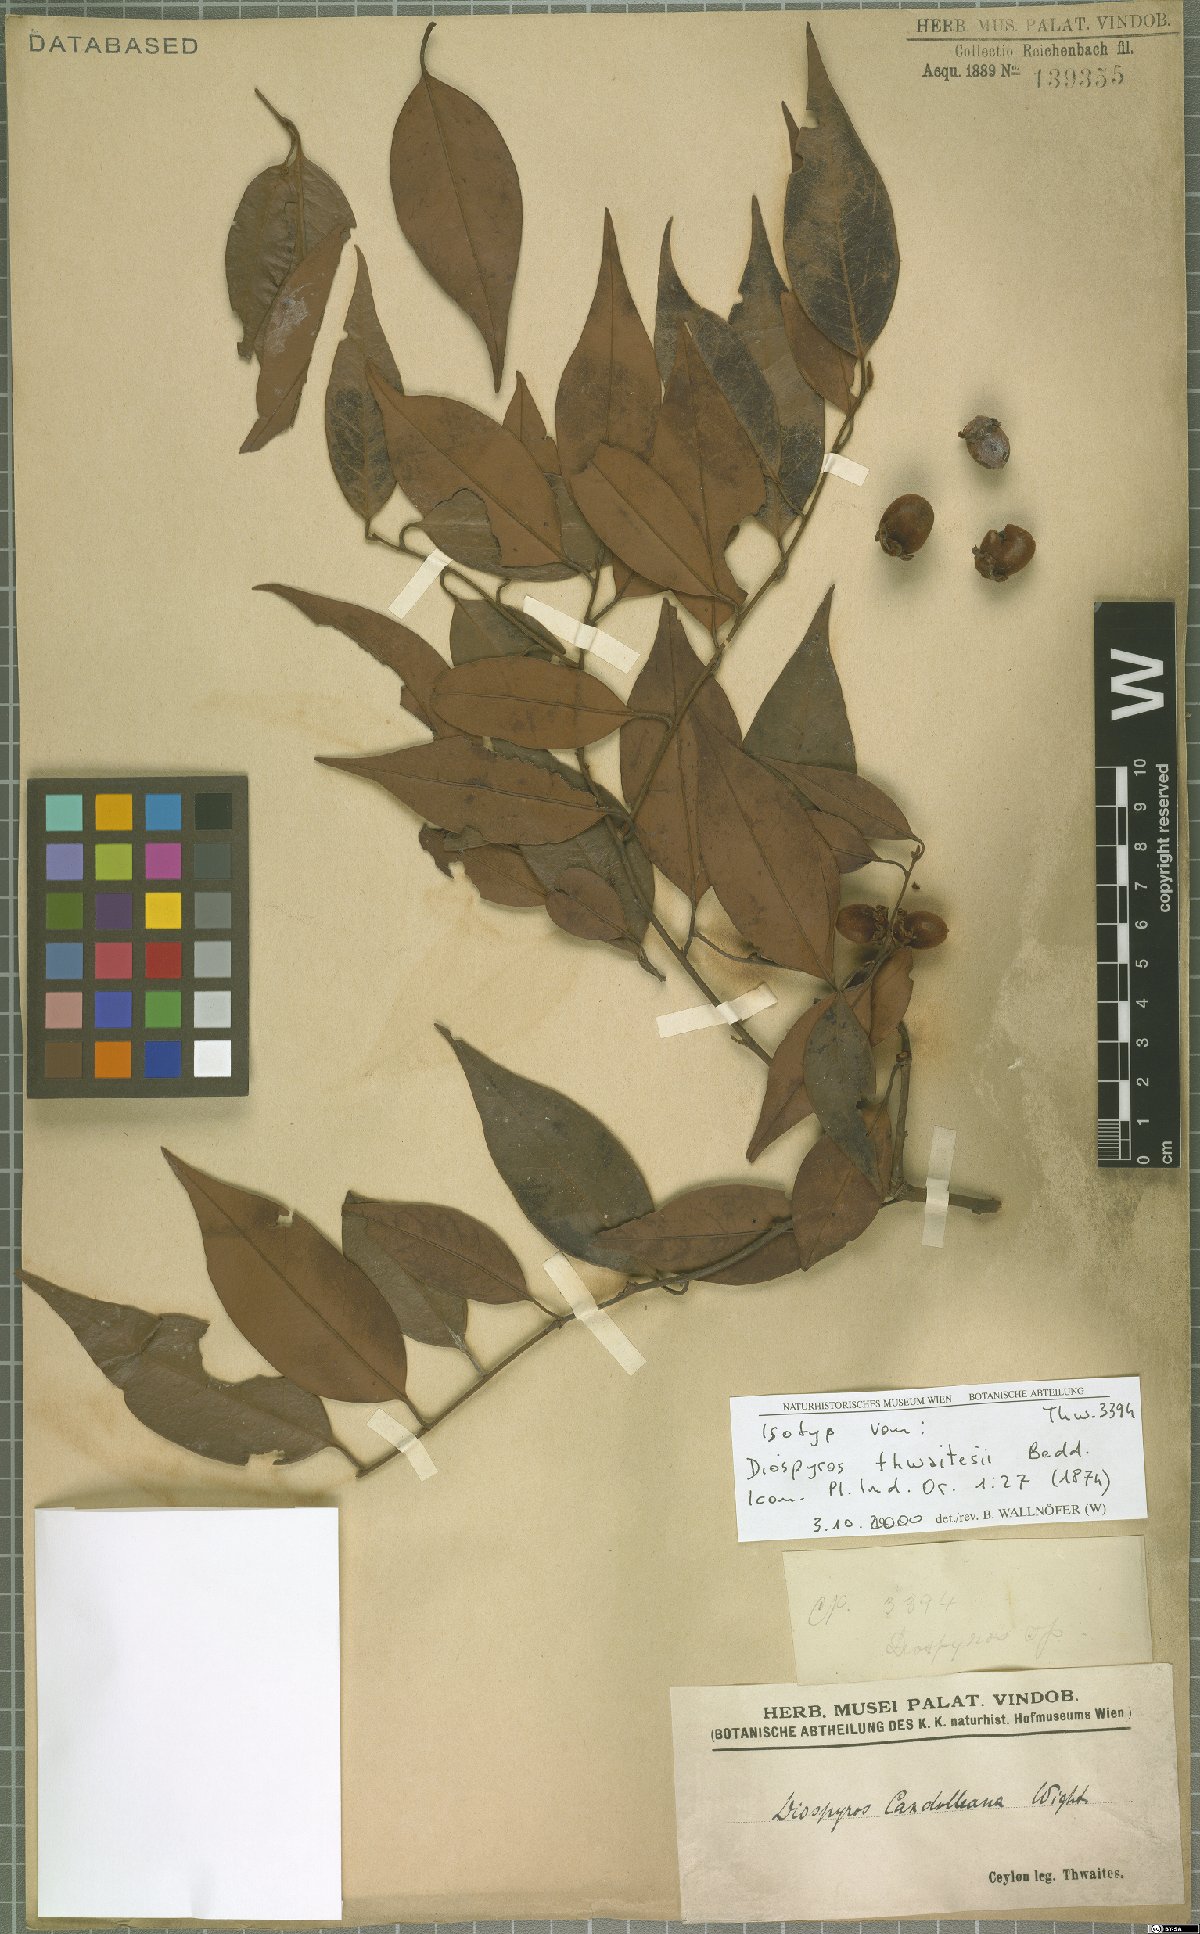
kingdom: Plantae
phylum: Tracheophyta
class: Magnoliopsida
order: Ericales
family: Ebenaceae
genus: Diospyros
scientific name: Diospyros thwaitesii
